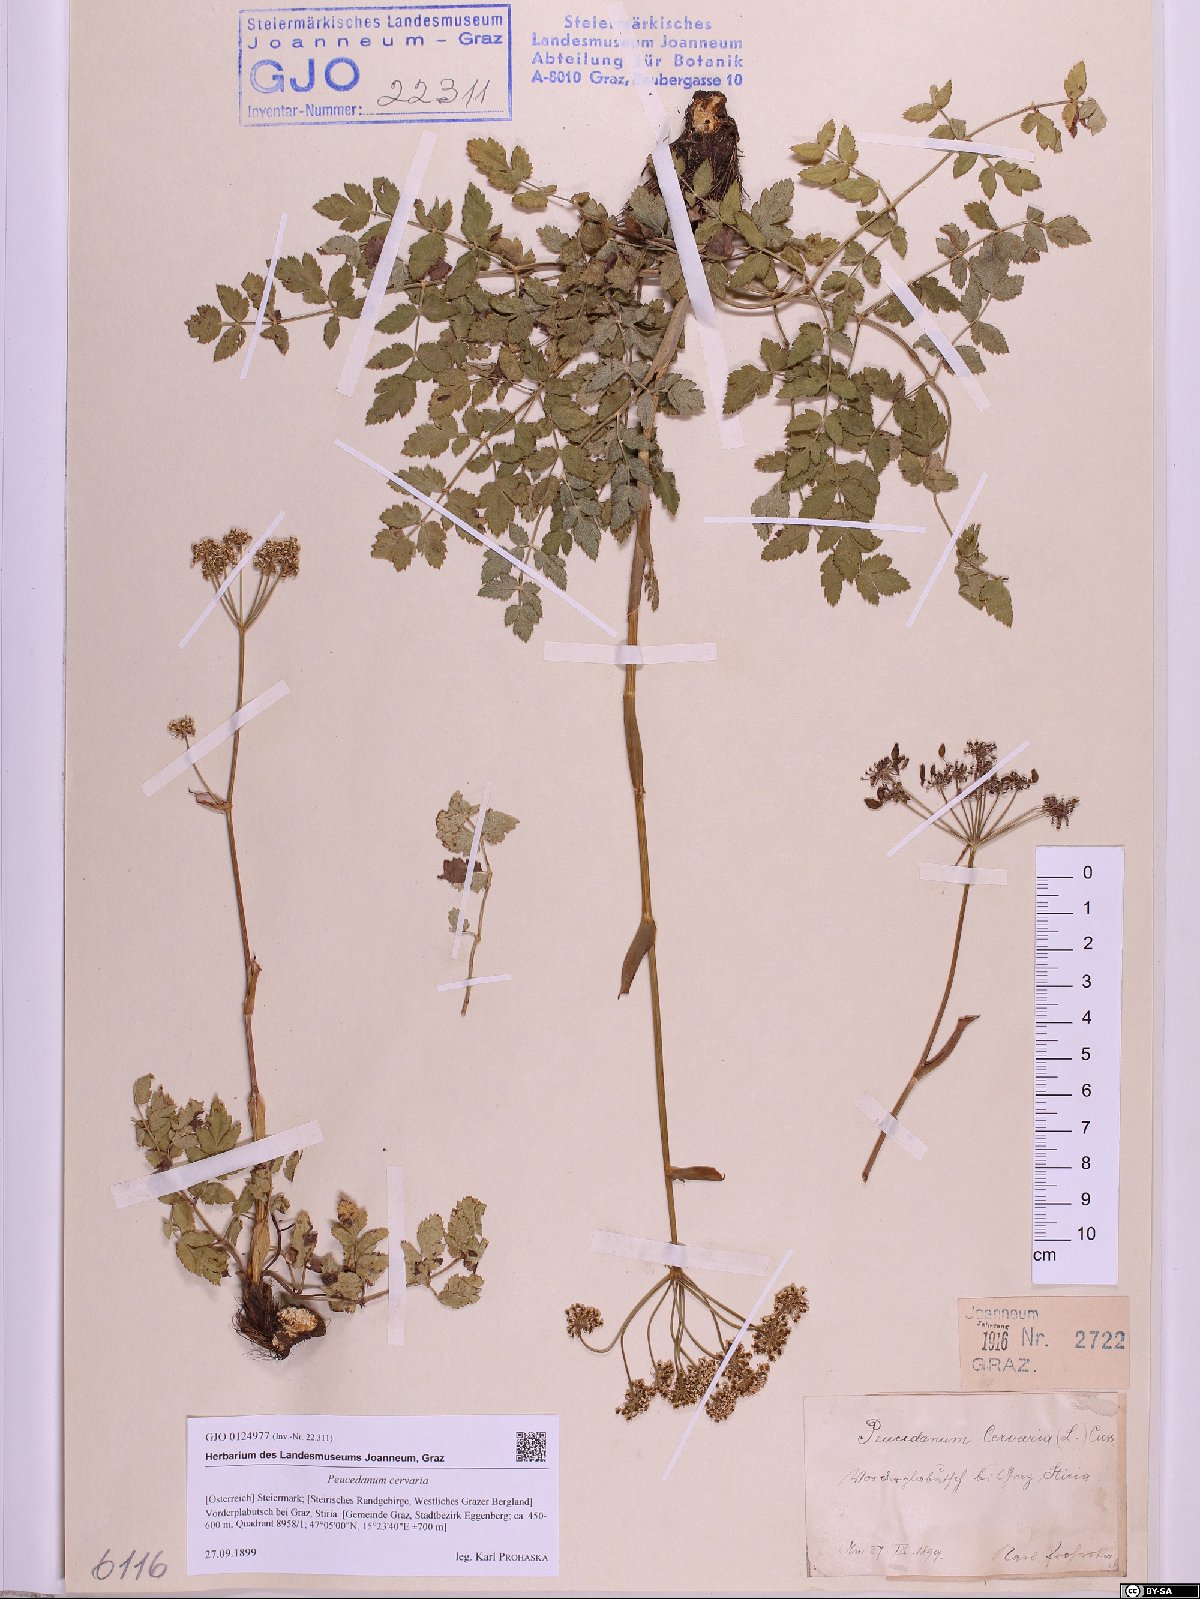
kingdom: Plantae
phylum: Tracheophyta
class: Magnoliopsida
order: Apiales
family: Apiaceae
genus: Cervaria
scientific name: Cervaria rivini
